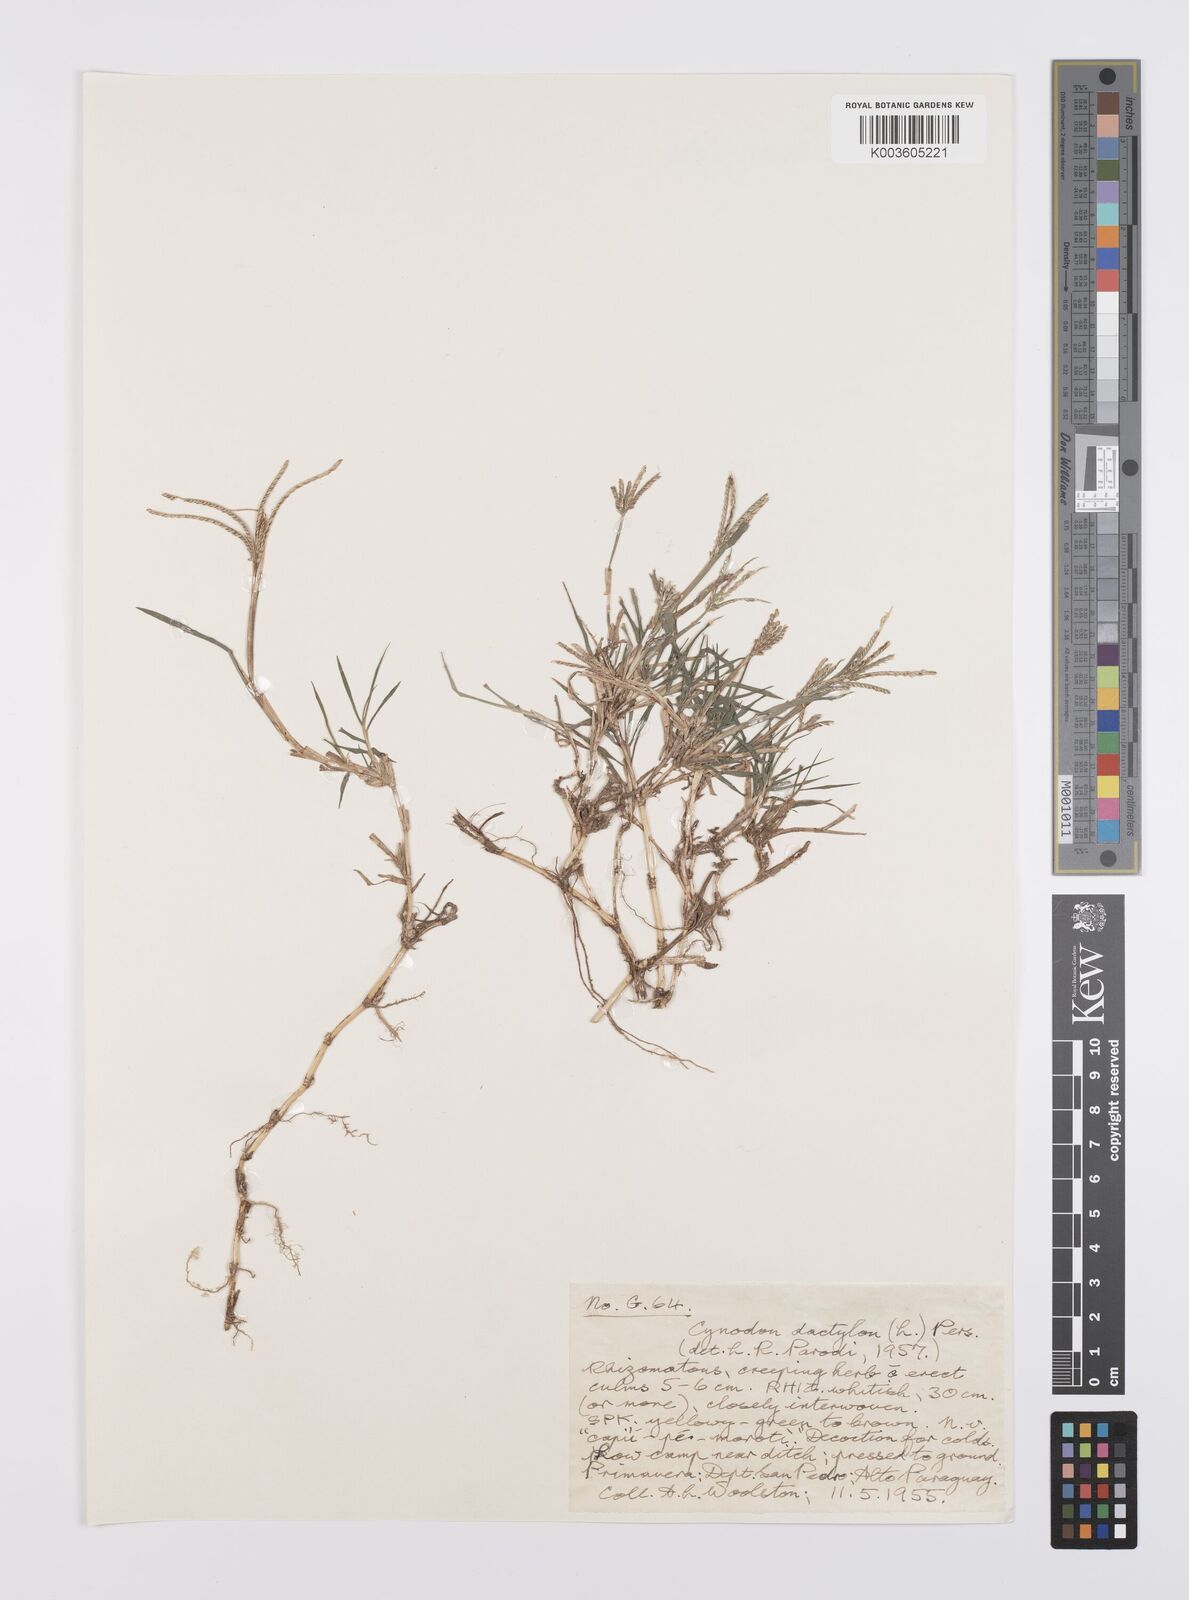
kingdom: Plantae
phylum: Tracheophyta
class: Liliopsida
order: Poales
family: Poaceae
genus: Cynodon
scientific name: Cynodon dactylon
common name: Bermuda grass
